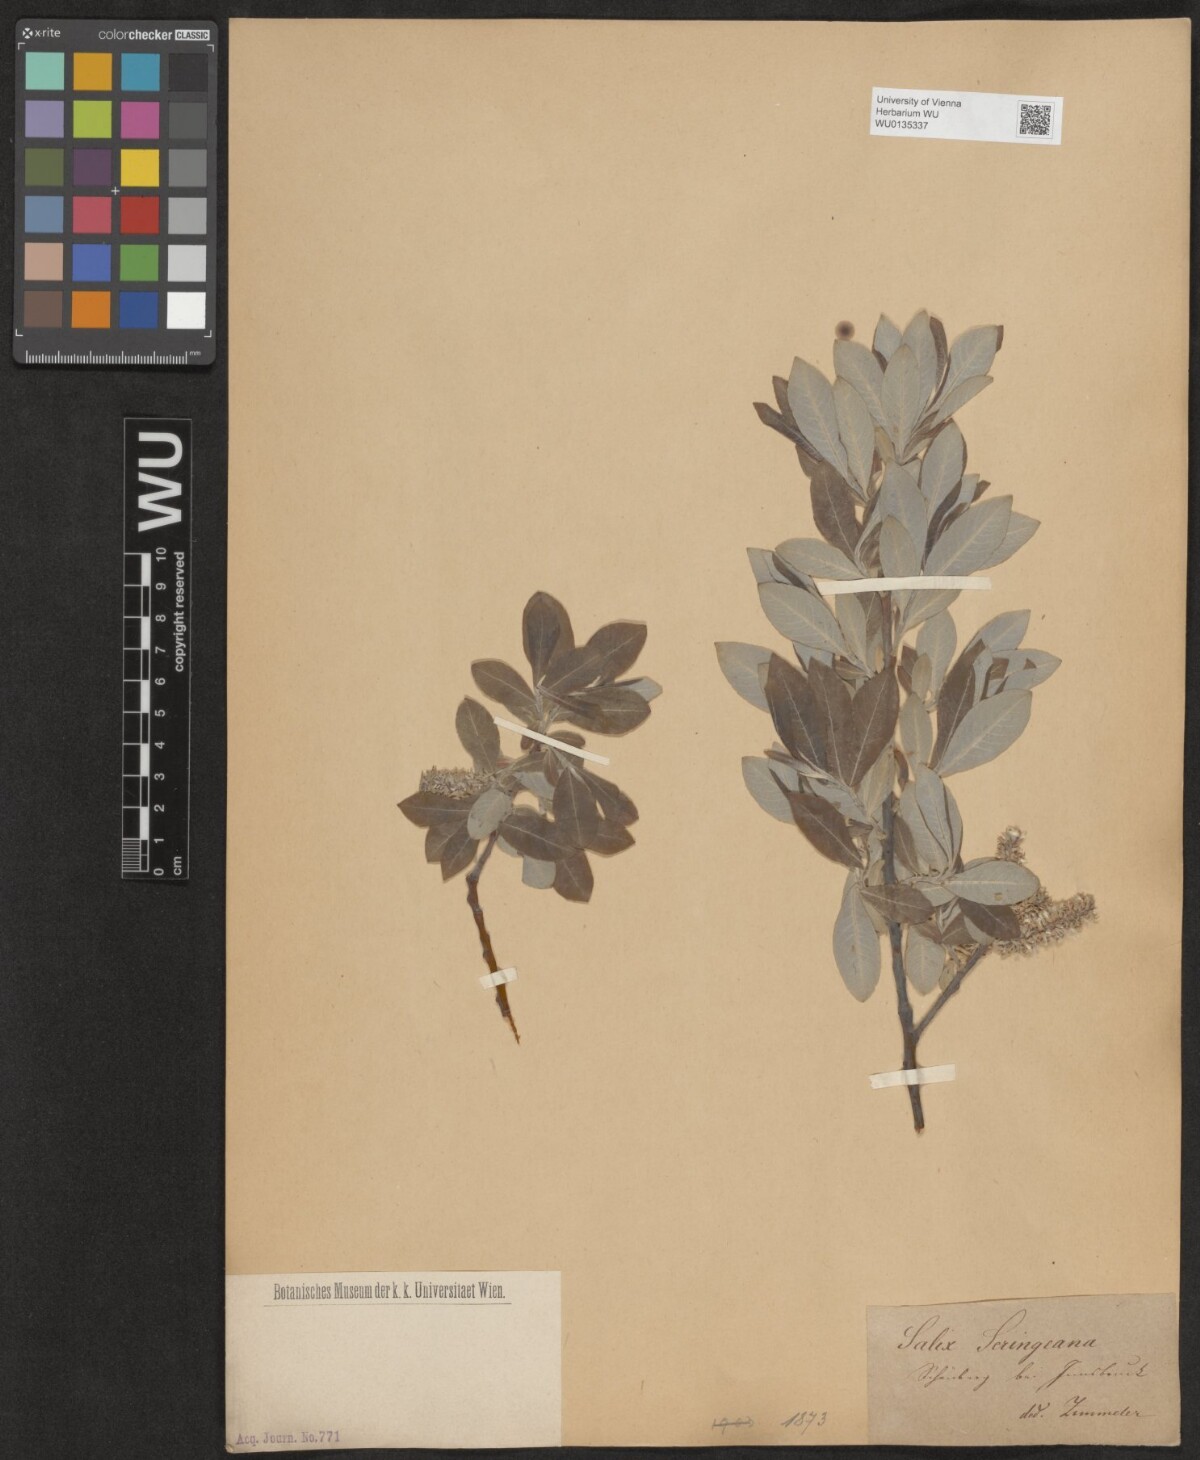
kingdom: Plantae
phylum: Tracheophyta
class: Magnoliopsida
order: Malpighiales
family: Salicaceae
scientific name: Salicaceae
